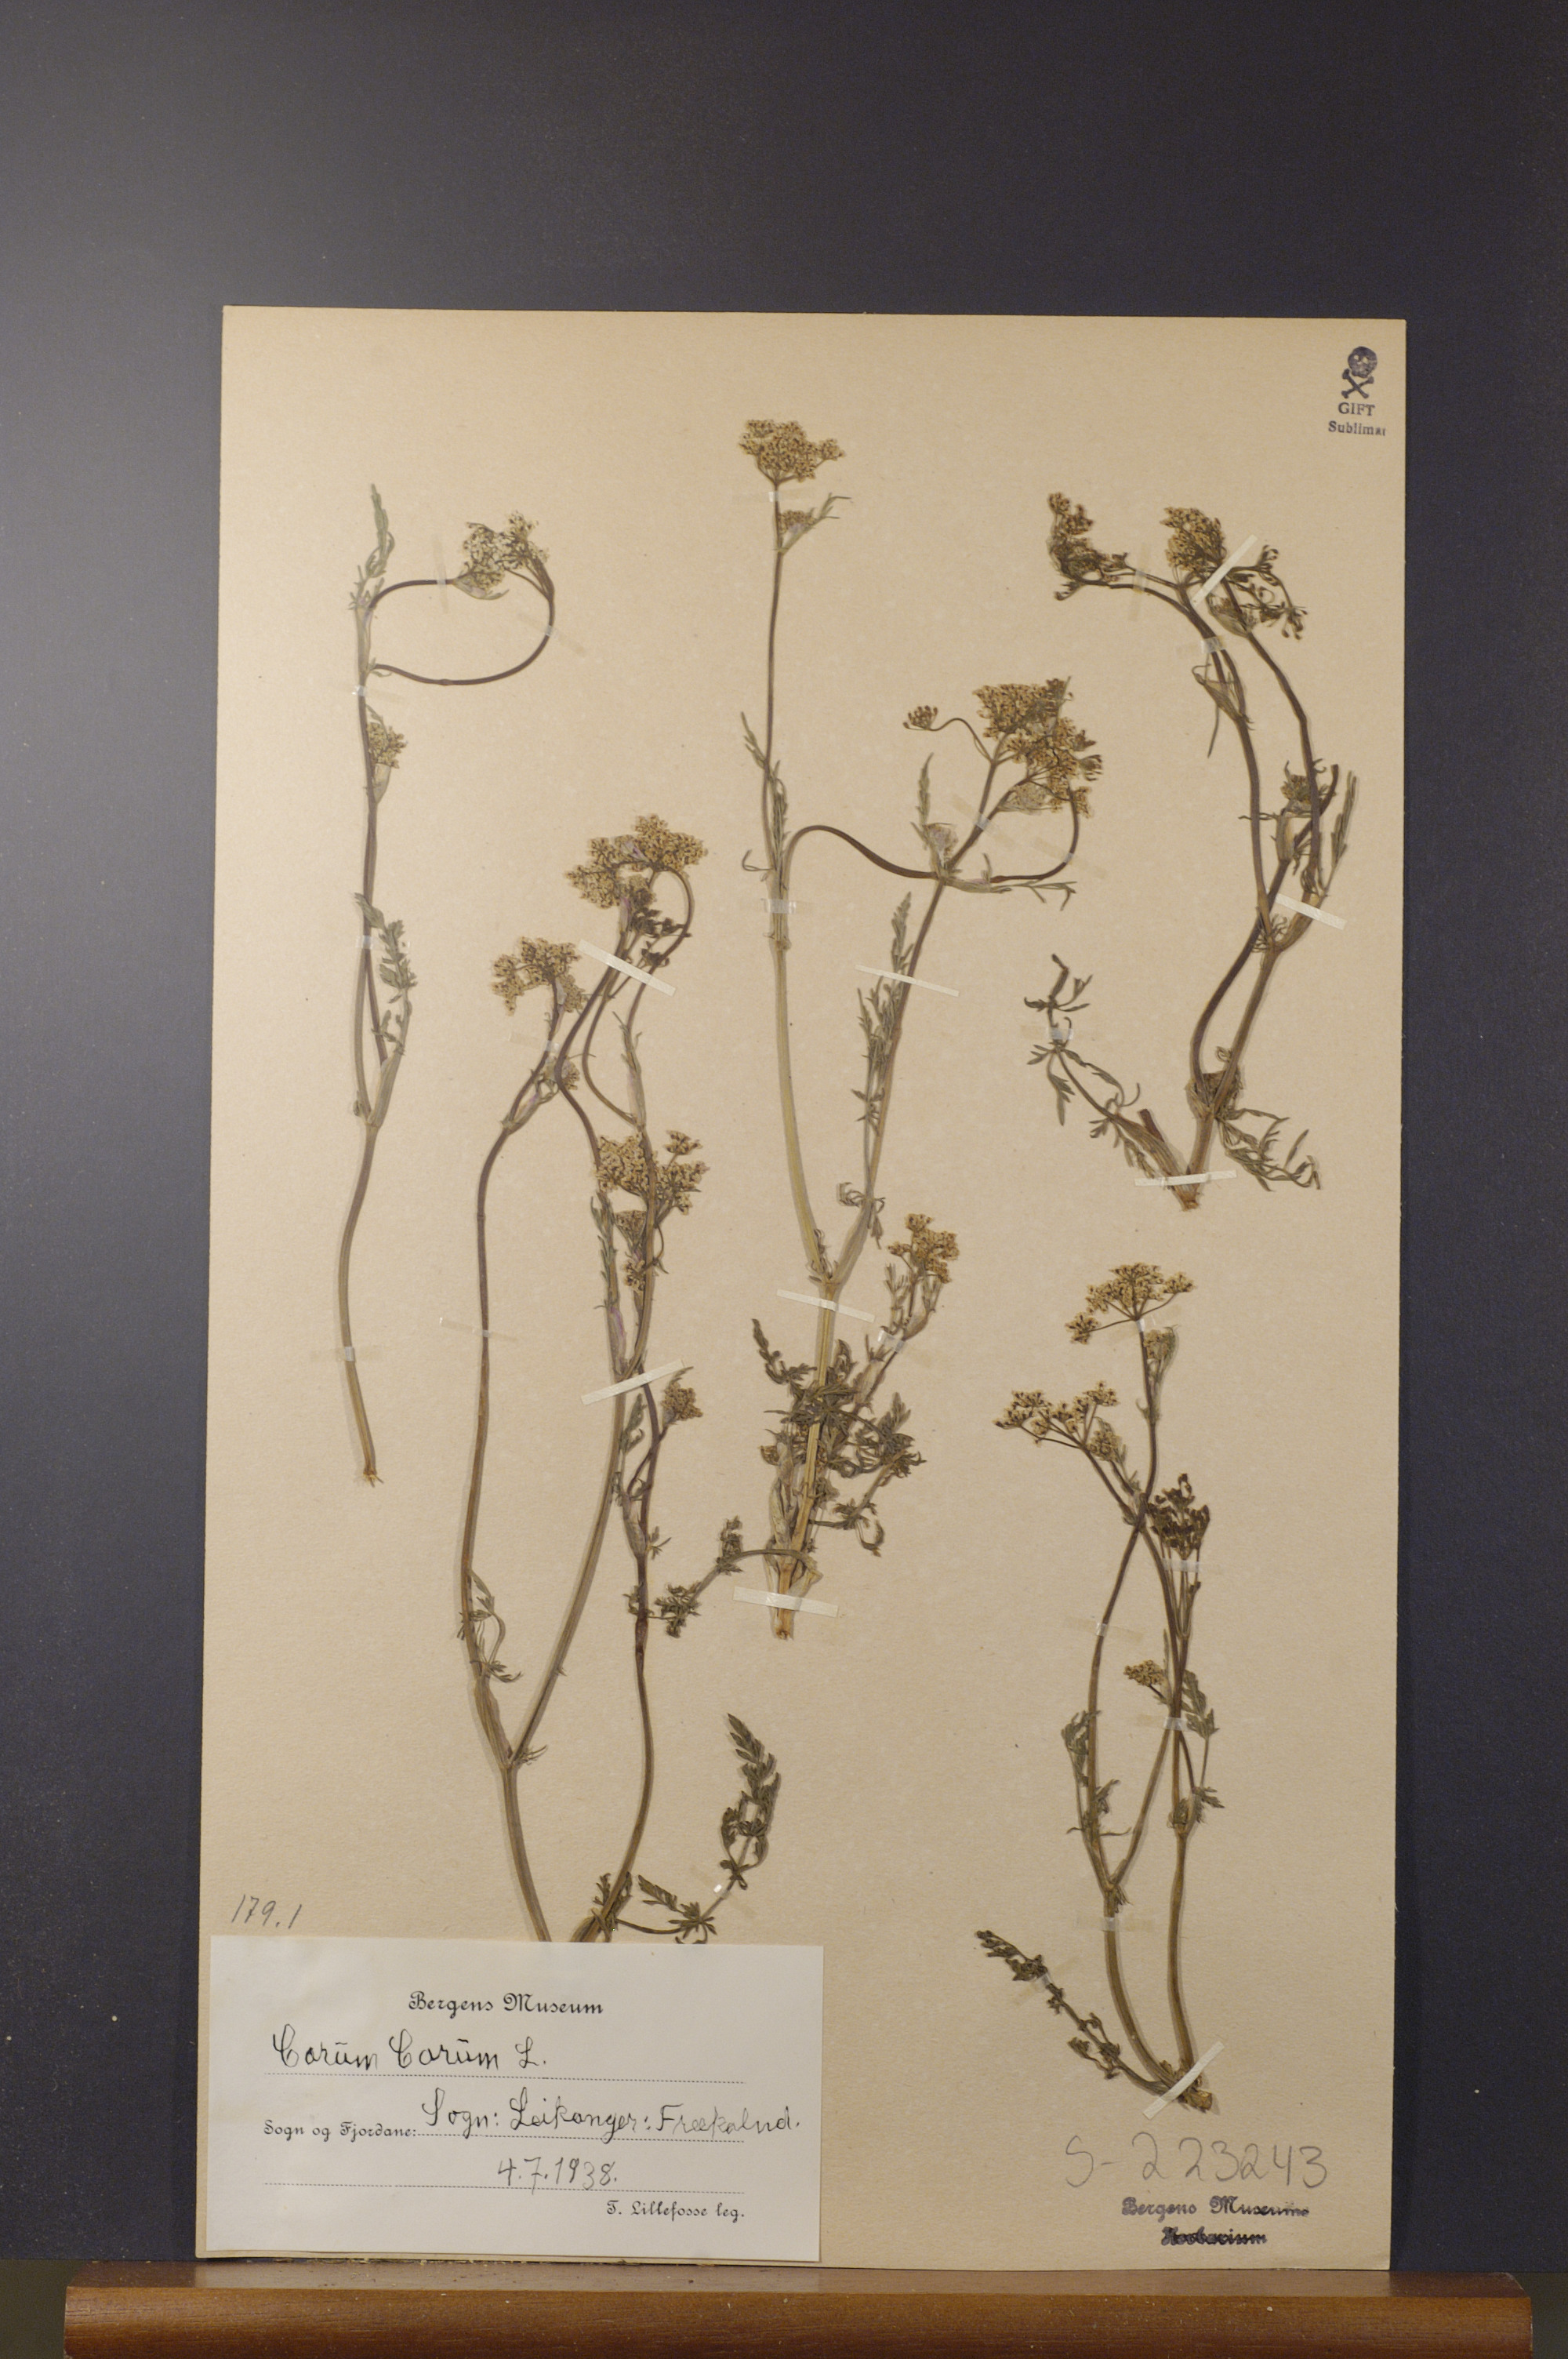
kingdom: Plantae
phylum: Tracheophyta
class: Magnoliopsida
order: Apiales
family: Apiaceae
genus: Carum
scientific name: Carum carvi
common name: Caraway
